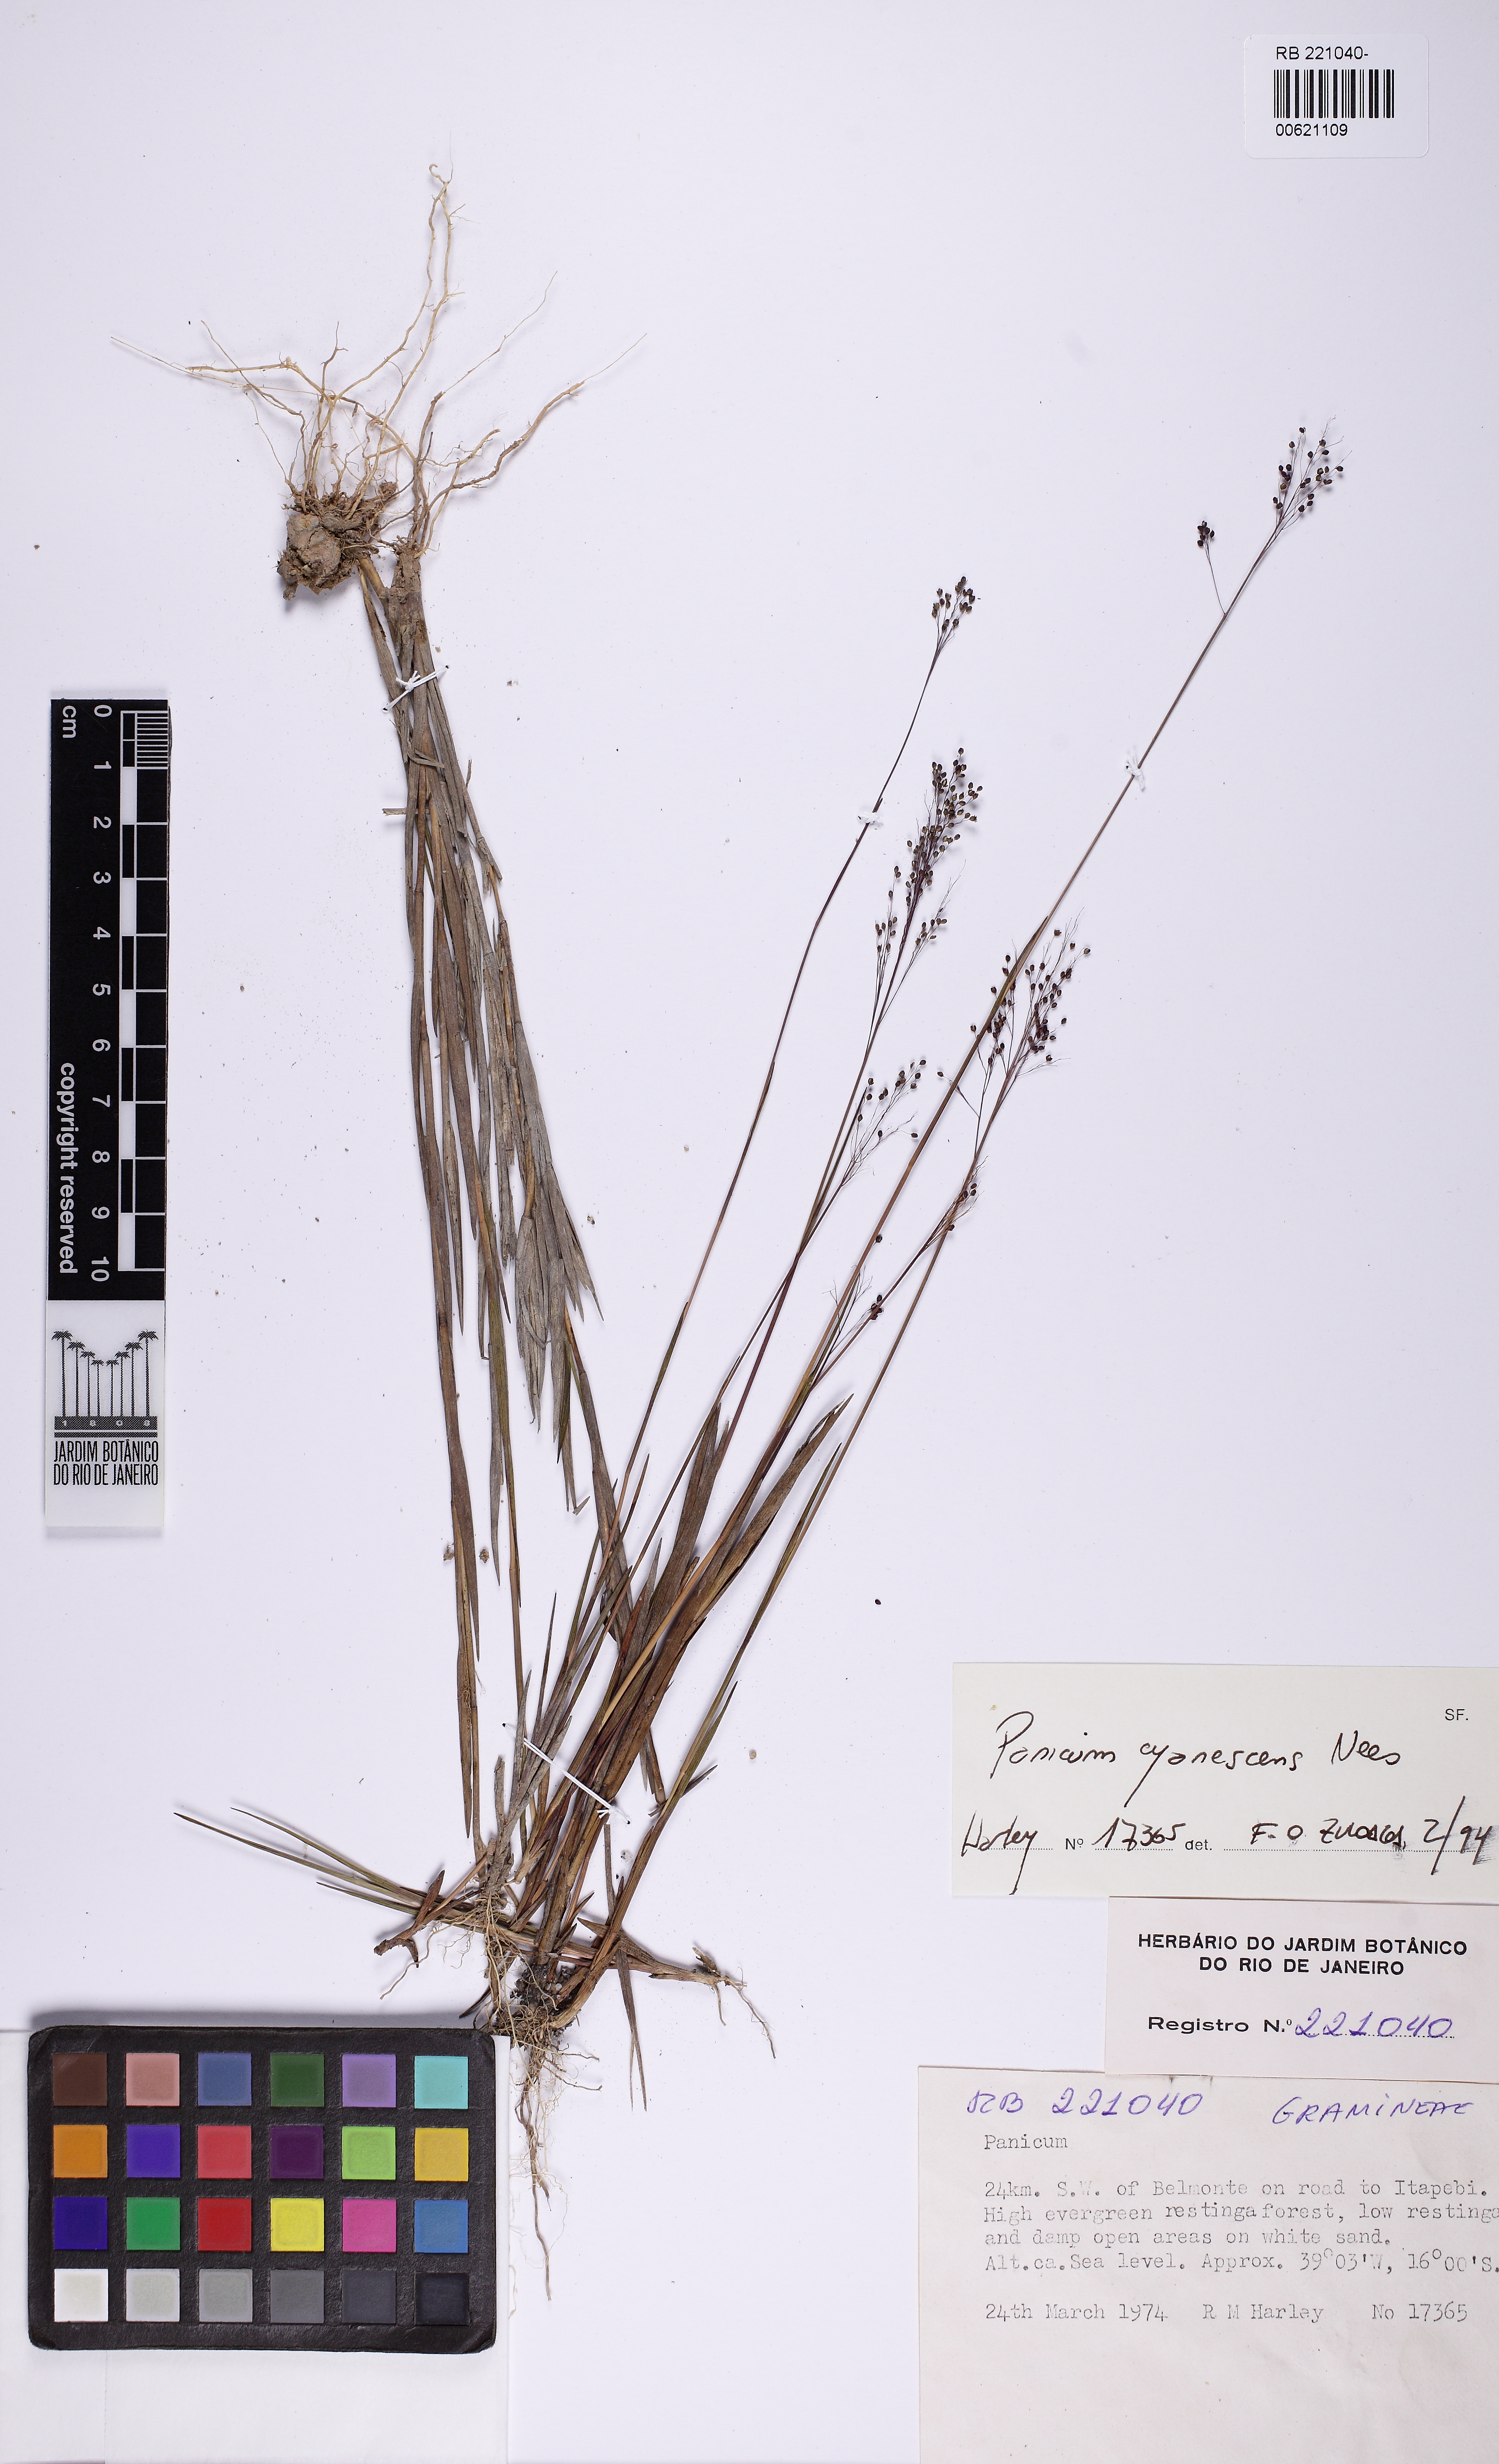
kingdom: Plantae
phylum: Tracheophyta
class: Liliopsida
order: Poales
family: Poaceae
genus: Trichanthecium
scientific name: Trichanthecium cyanescens
